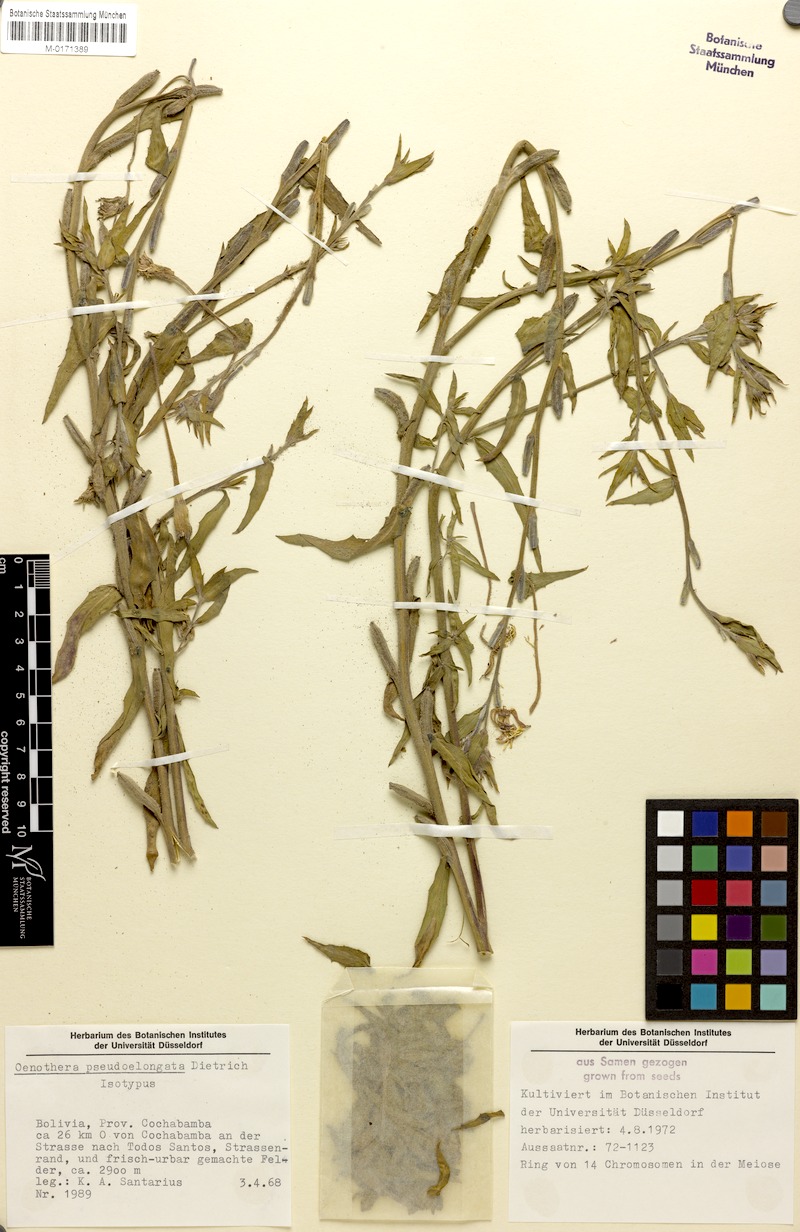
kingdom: Plantae
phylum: Tracheophyta
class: Magnoliopsida
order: Myrtales
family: Onagraceae
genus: Oenothera
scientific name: Oenothera pseudoelongata
